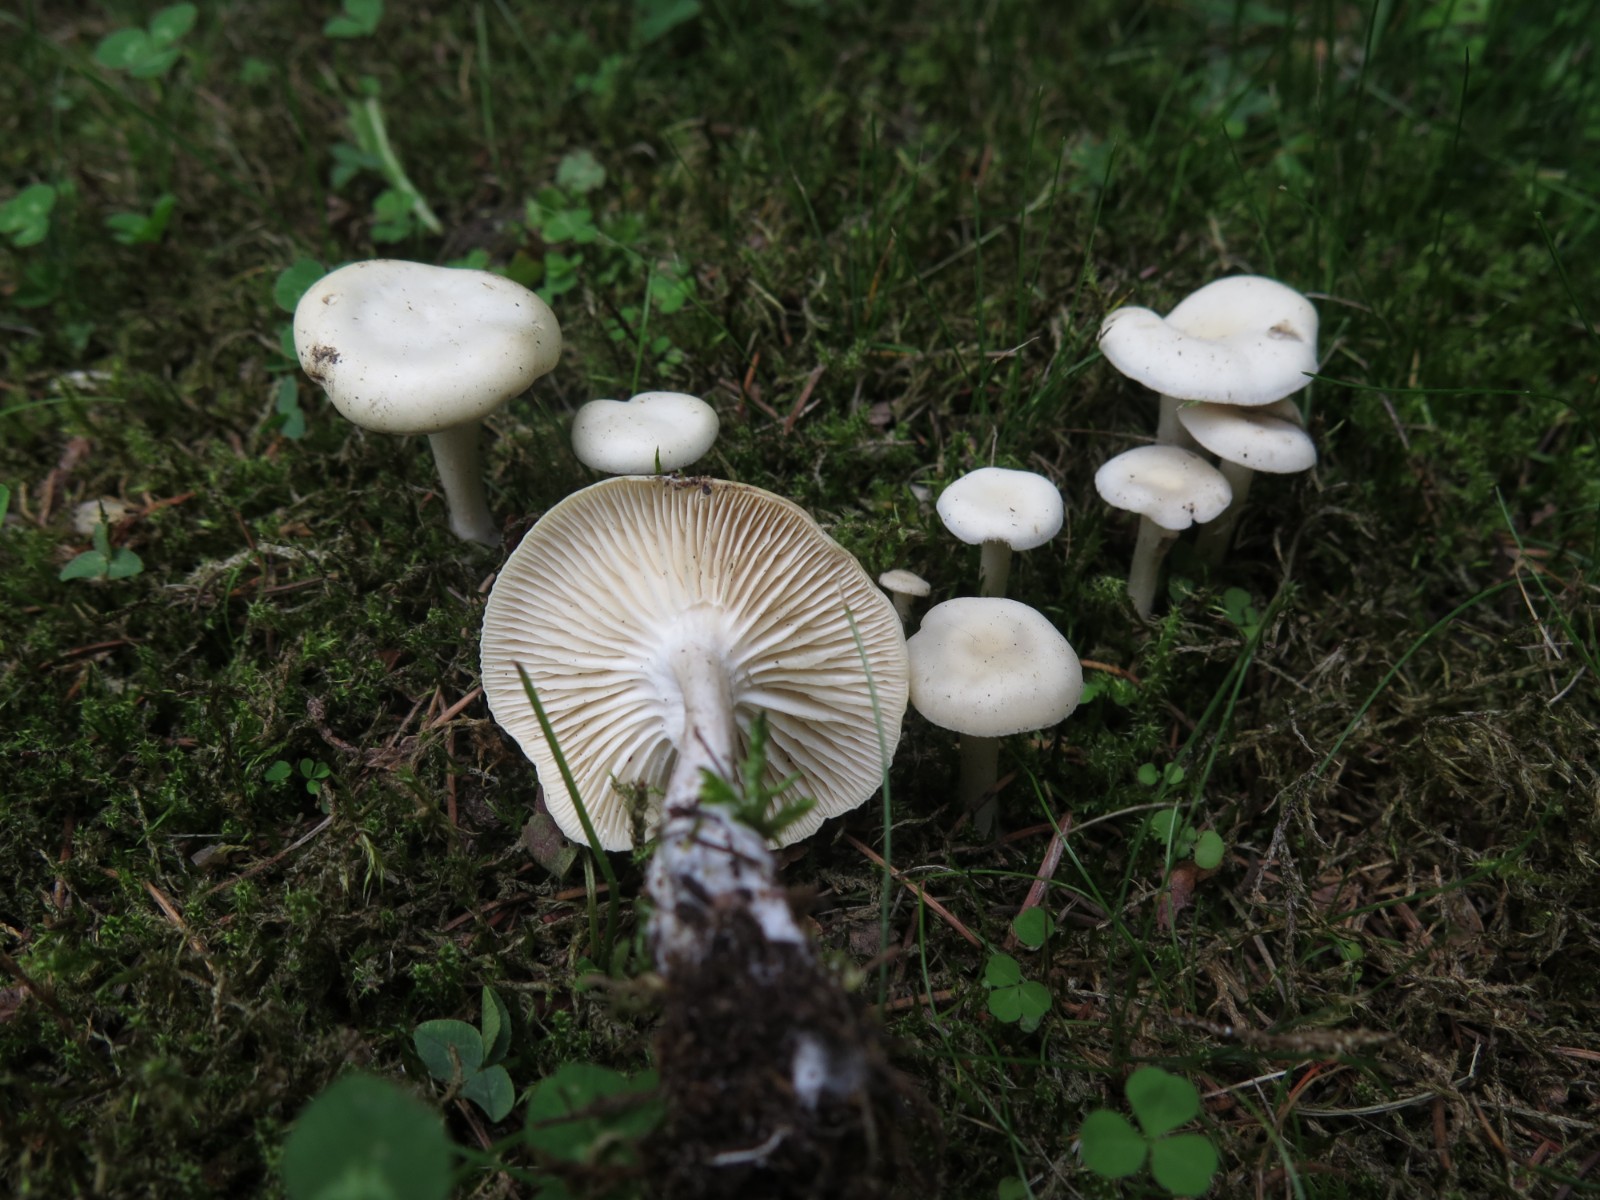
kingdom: Fungi
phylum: Basidiomycota
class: Agaricomycetes
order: Agaricales
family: Tricholomataceae
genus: Leucocybe
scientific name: Leucocybe candicans
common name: kridt-tragthat
